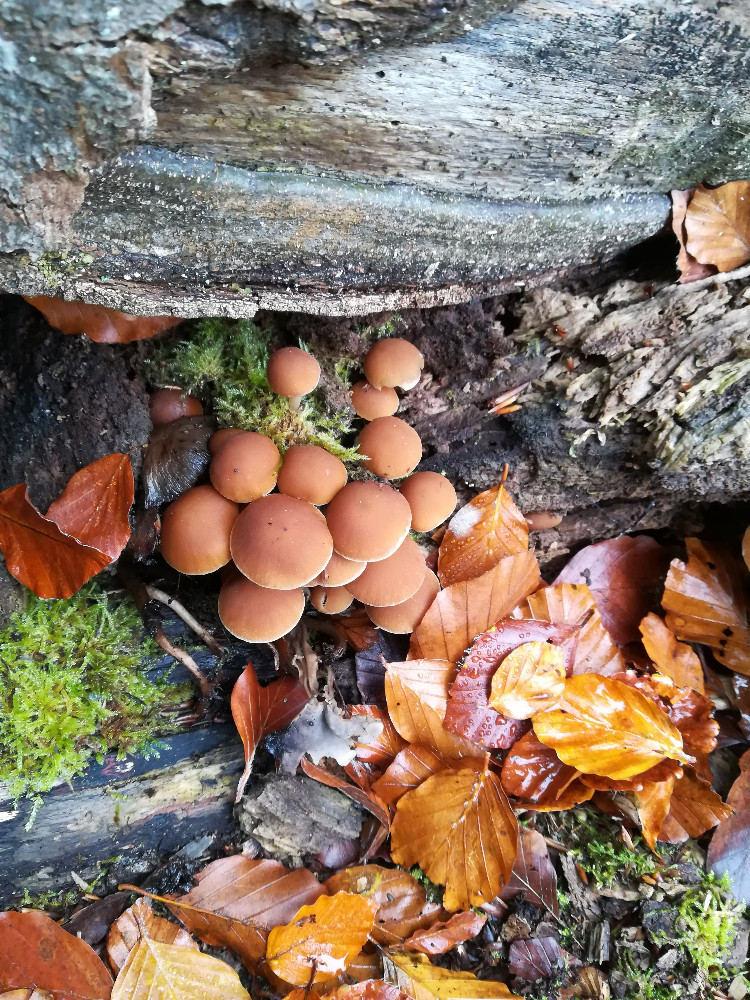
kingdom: Fungi
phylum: Basidiomycota
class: Agaricomycetes
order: Agaricales
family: Psathyrellaceae
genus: Psathyrella
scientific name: Psathyrella piluliformis
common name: lysstokket mørkhat
